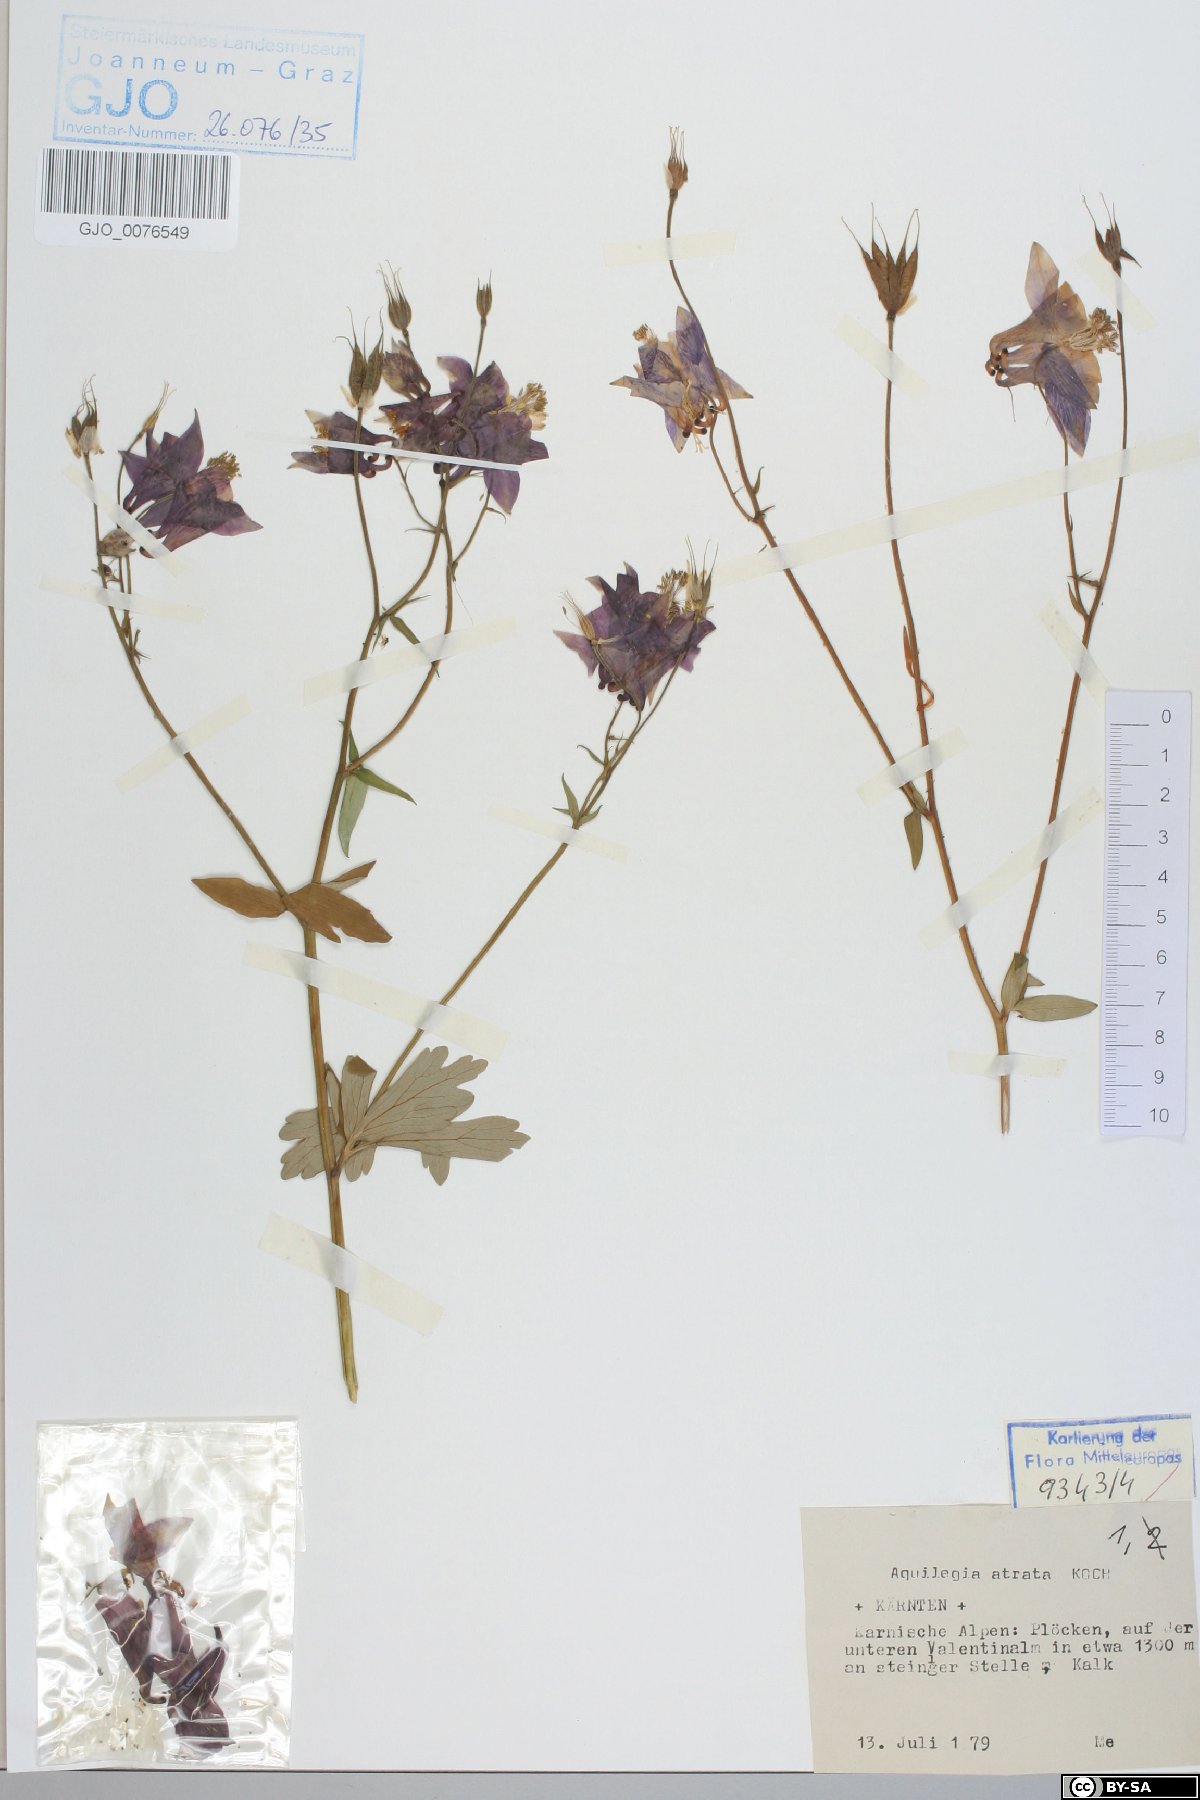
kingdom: Plantae
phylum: Tracheophyta
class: Magnoliopsida
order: Ranunculales
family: Ranunculaceae
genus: Aquilegia
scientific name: Aquilegia atrata
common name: Dark columbine
